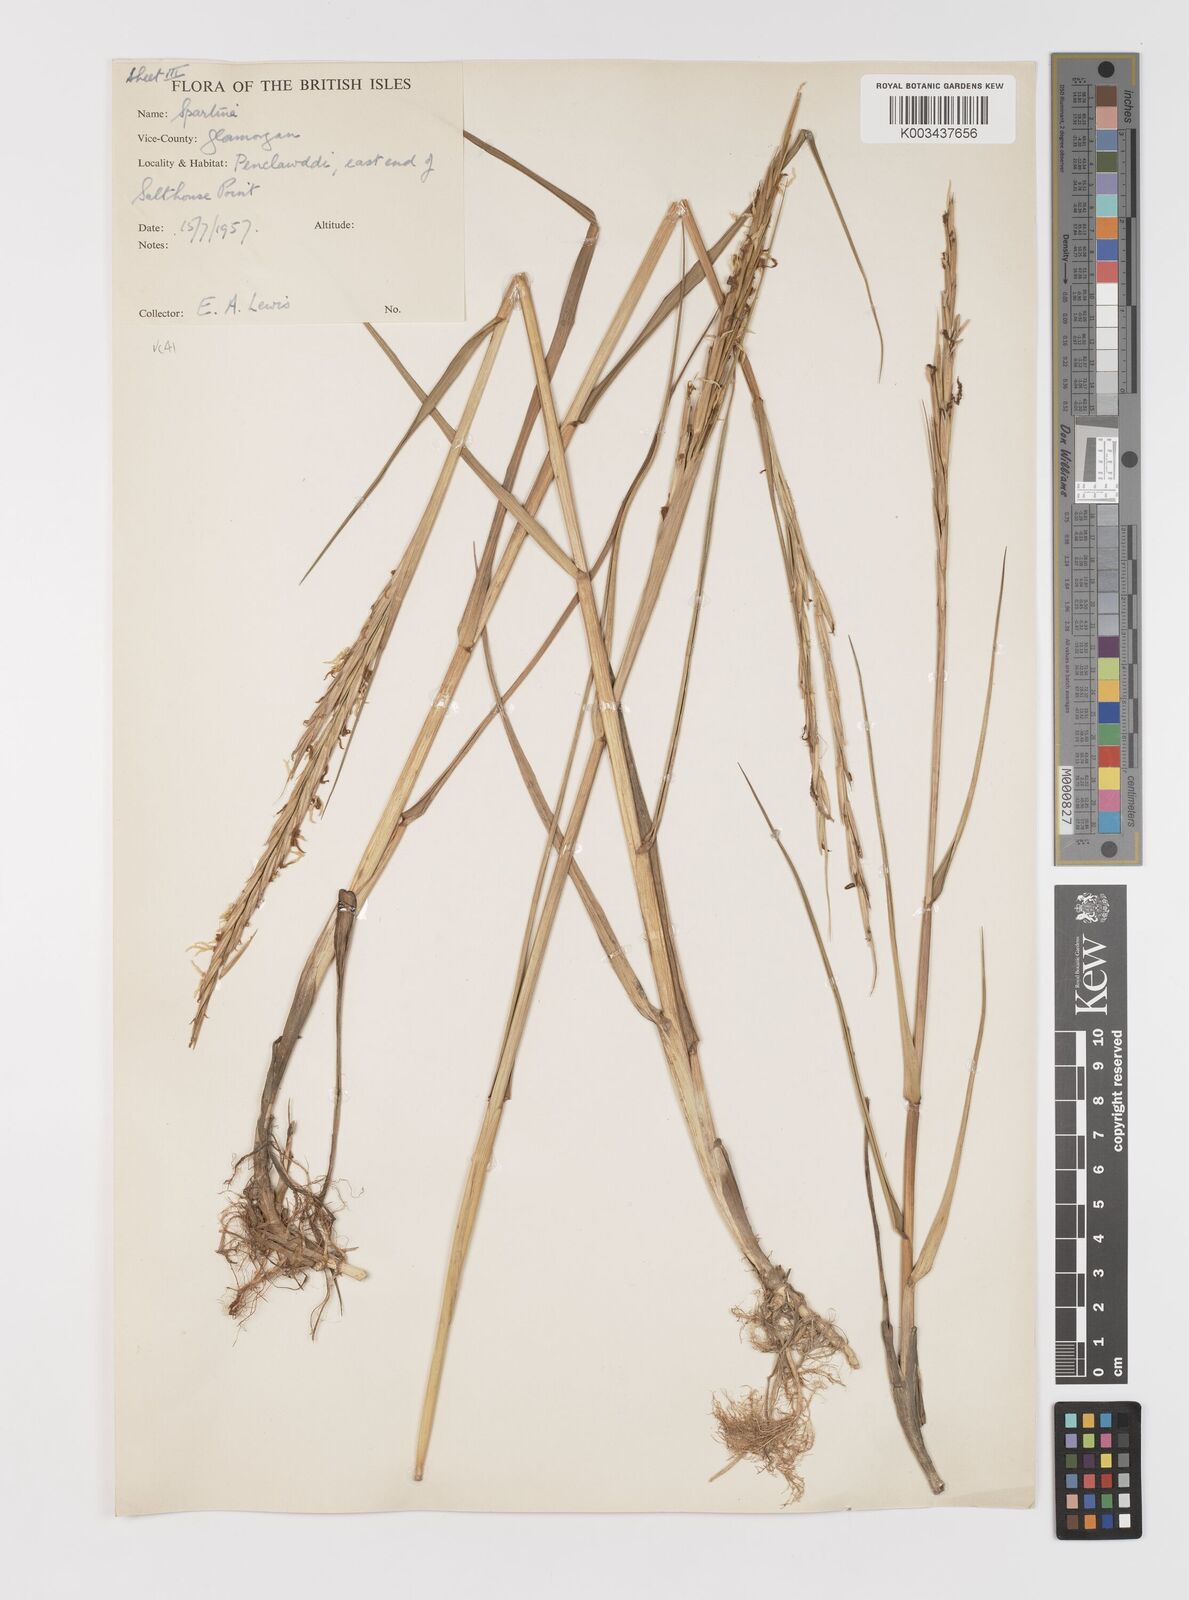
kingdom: Plantae
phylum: Tracheophyta
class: Liliopsida
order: Poales
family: Poaceae
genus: Sporobolus
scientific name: Sporobolus anglicus
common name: English cordgrass
